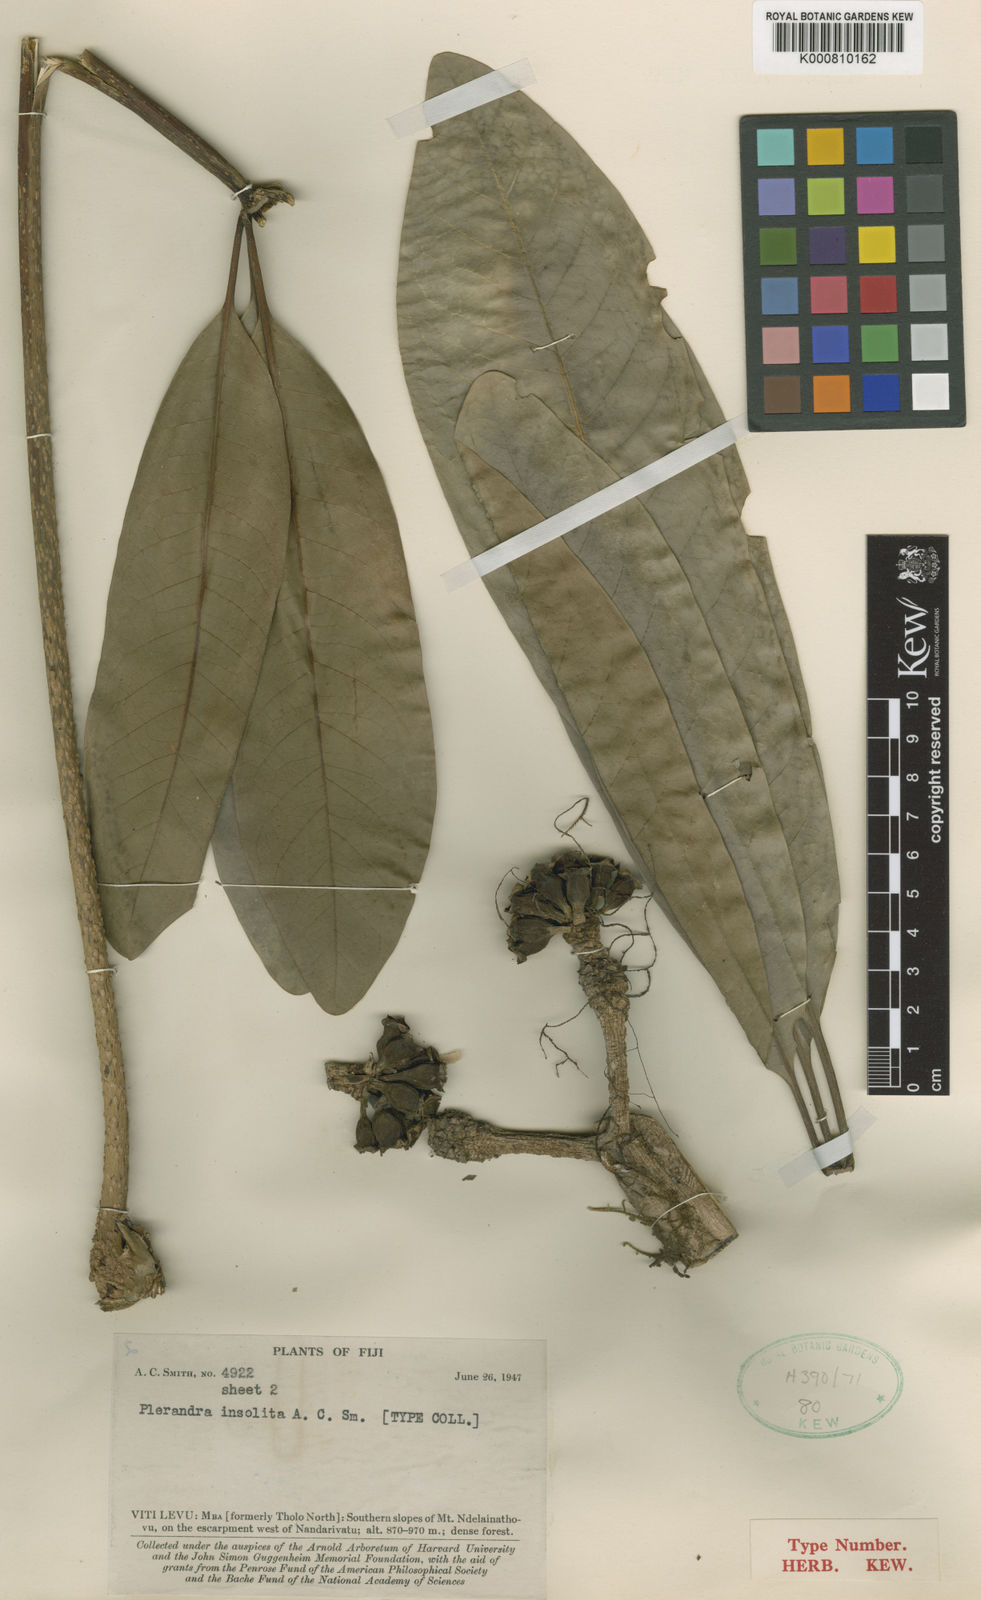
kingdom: Plantae
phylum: Tracheophyta
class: Magnoliopsida
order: Apiales
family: Araliaceae
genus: Plerandra
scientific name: Plerandra insolita
